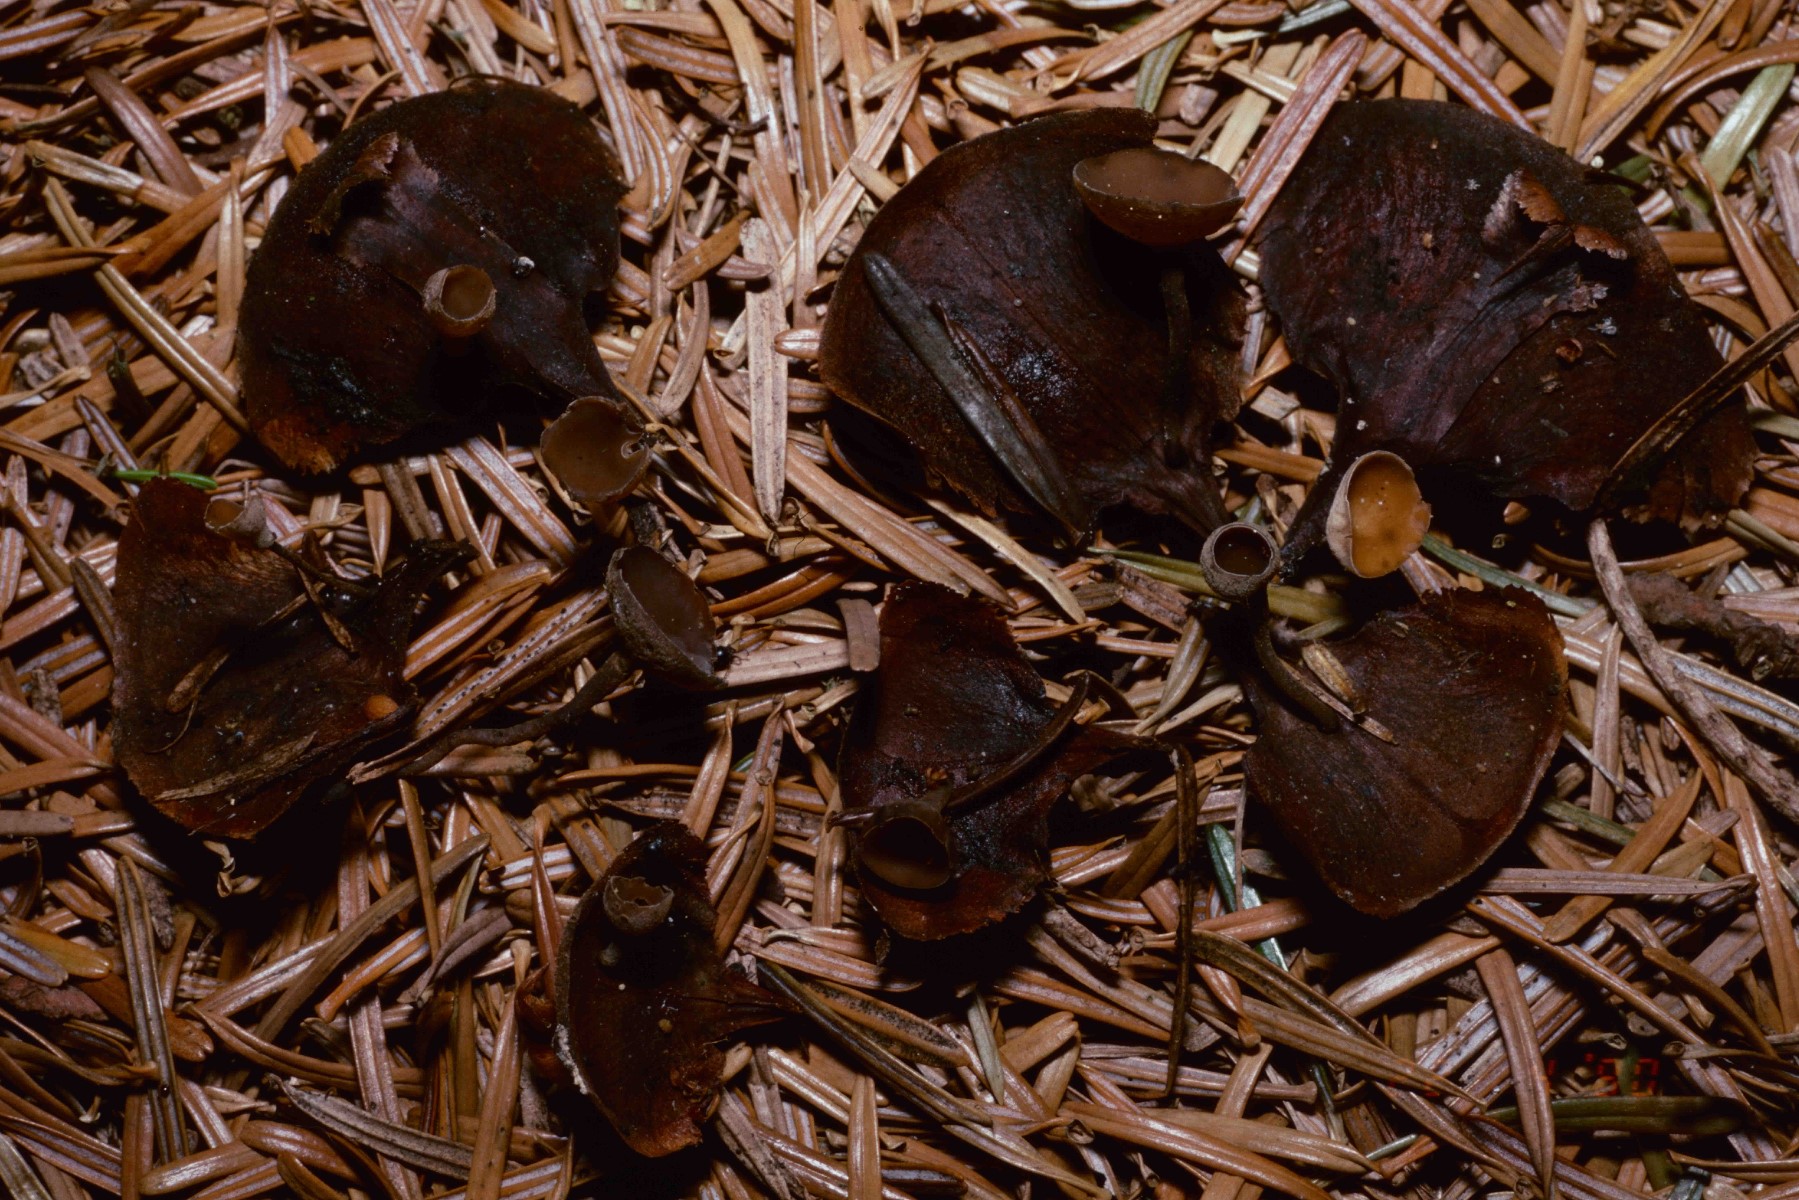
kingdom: Fungi
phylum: Ascomycota
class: Leotiomycetes
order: Helotiales
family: Sclerotiniaceae
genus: Ciboria
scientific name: Ciboria rufofusca
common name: kogleskæl-knoldskive
